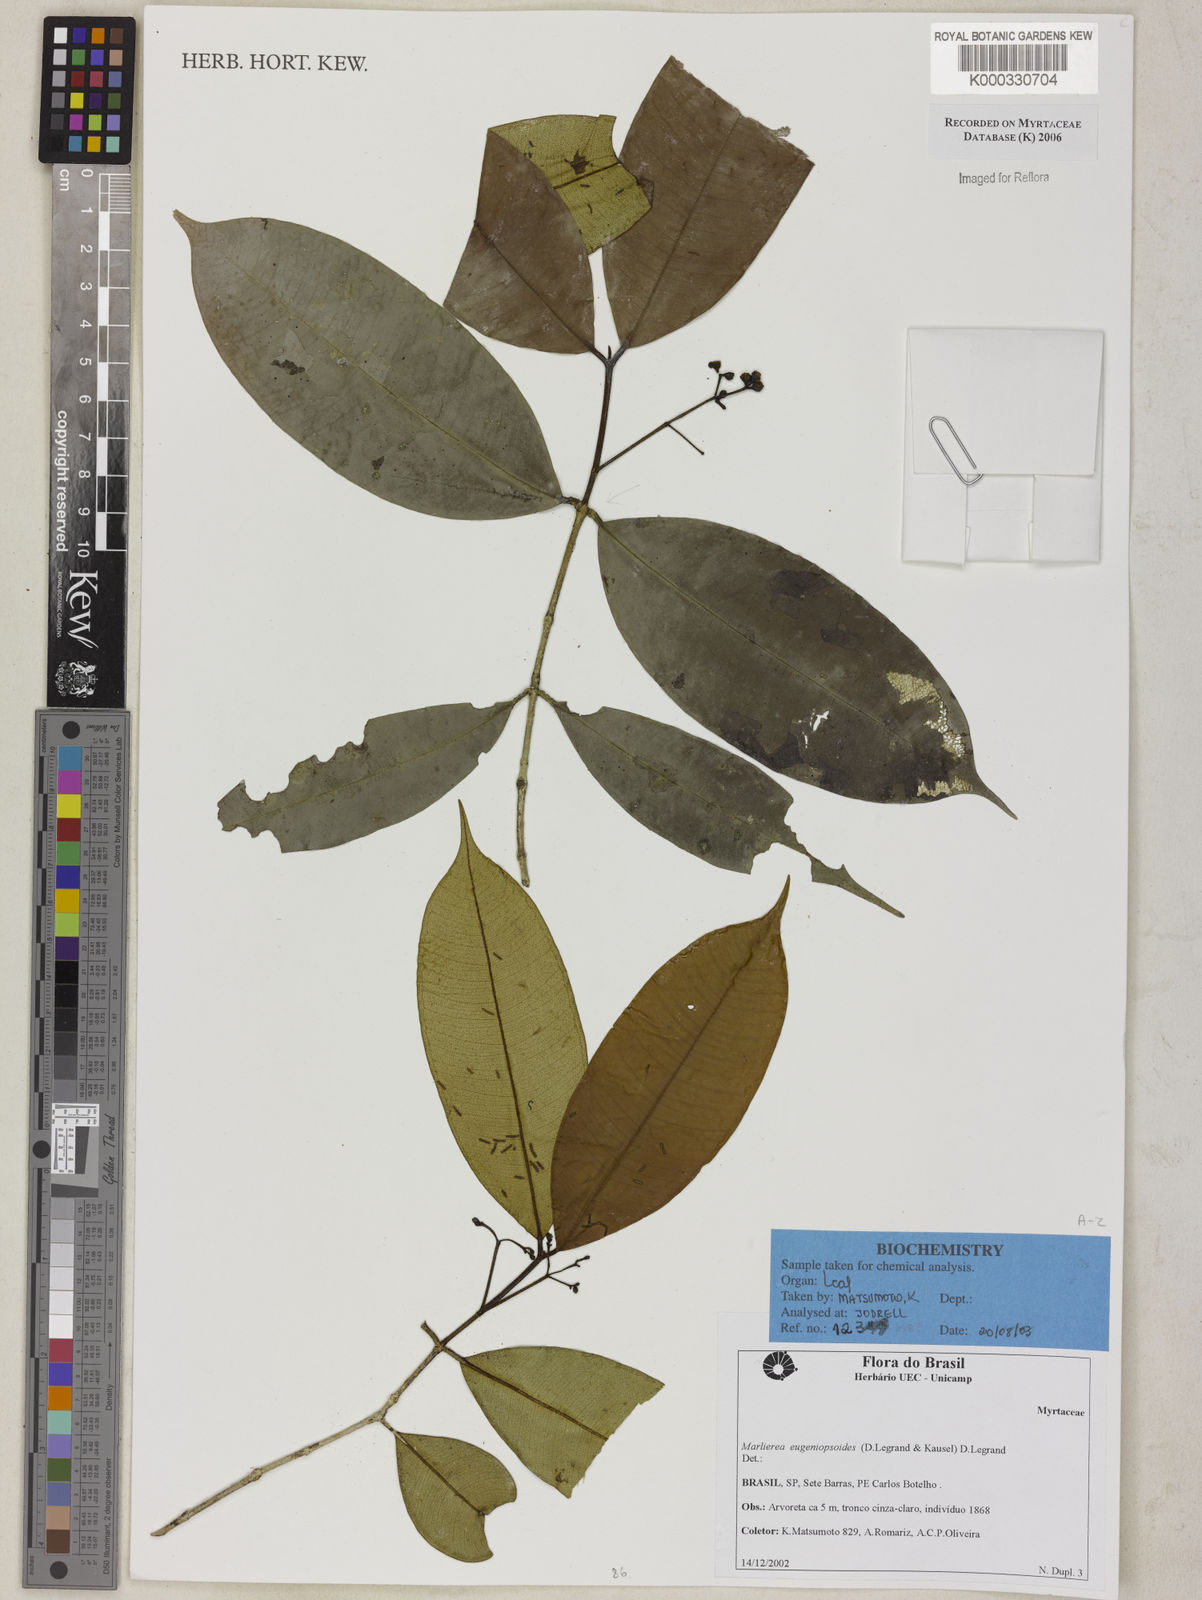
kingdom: Plantae
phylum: Tracheophyta
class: Magnoliopsida
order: Myrtales
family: Myrtaceae
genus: Myrcia
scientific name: Myrcia eugeniopsoides
